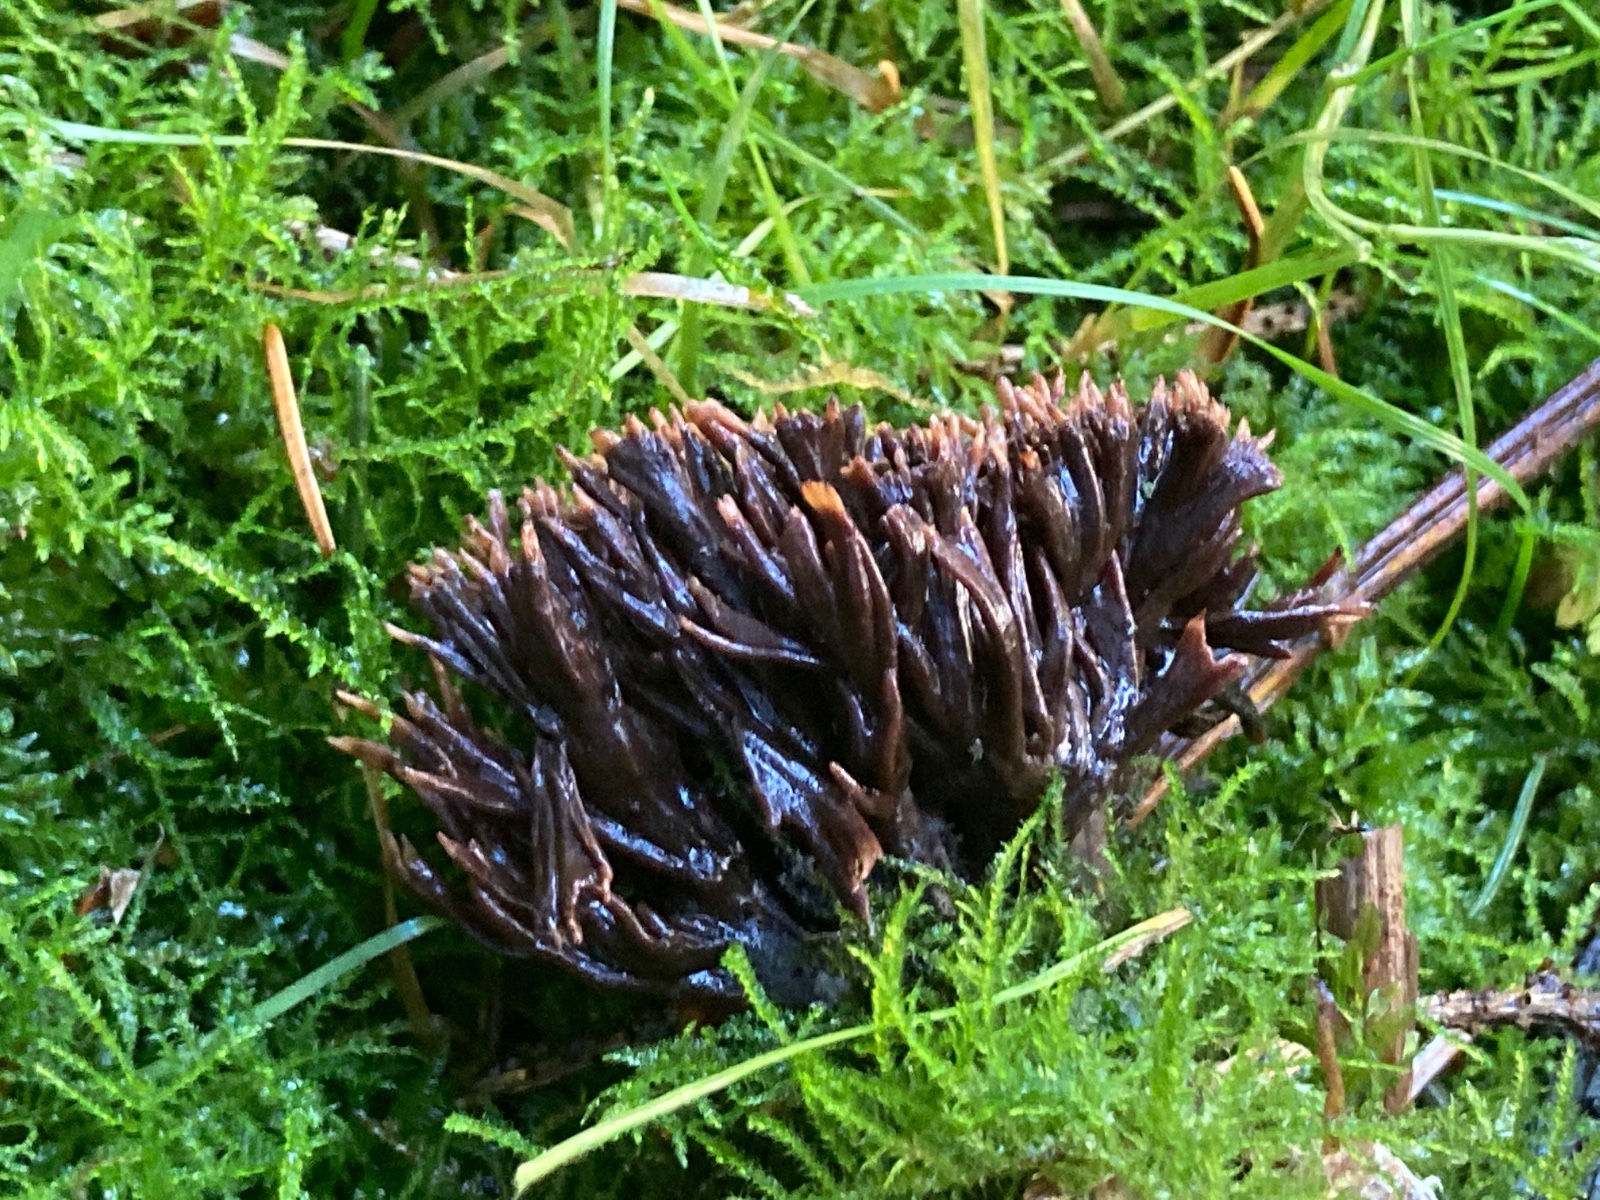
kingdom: Fungi
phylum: Basidiomycota
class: Agaricomycetes
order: Thelephorales
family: Thelephoraceae
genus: Thelephora
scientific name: Thelephora palmata
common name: grenet frynsesvamp
